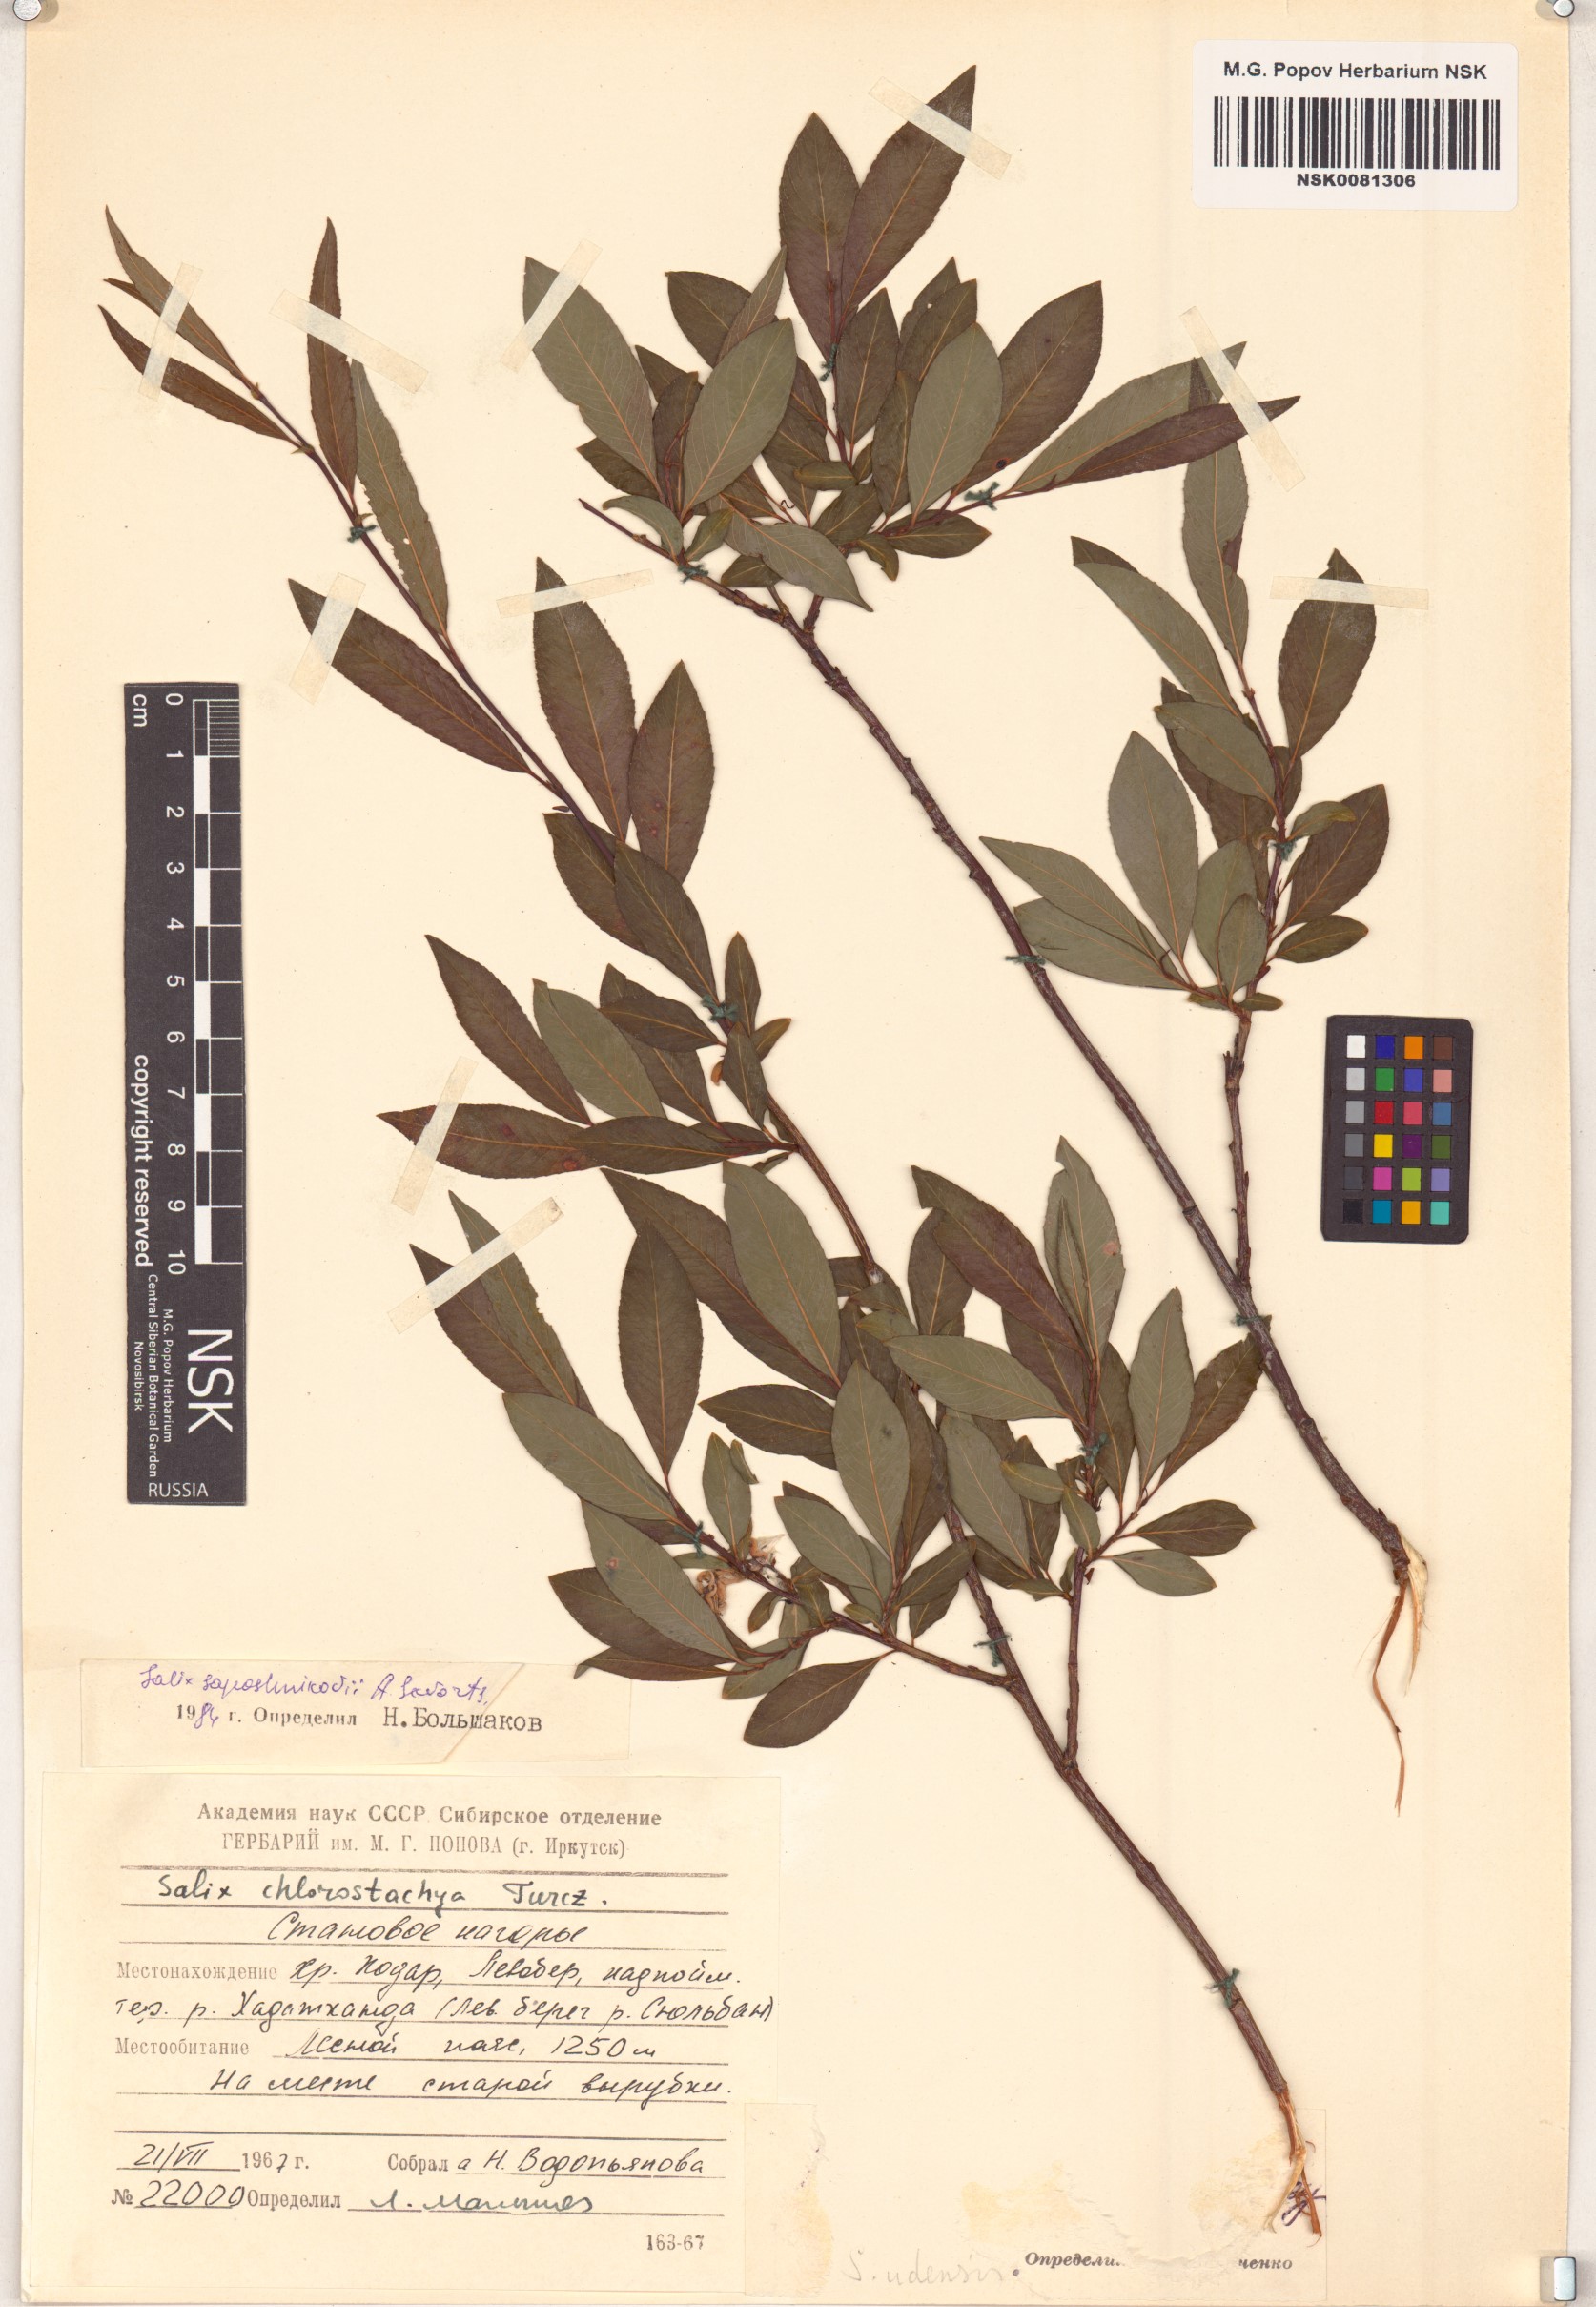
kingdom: Plantae
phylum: Tracheophyta
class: Magnoliopsida
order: Malpighiales
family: Salicaceae
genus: Salix
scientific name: Salix saposhnikovii
